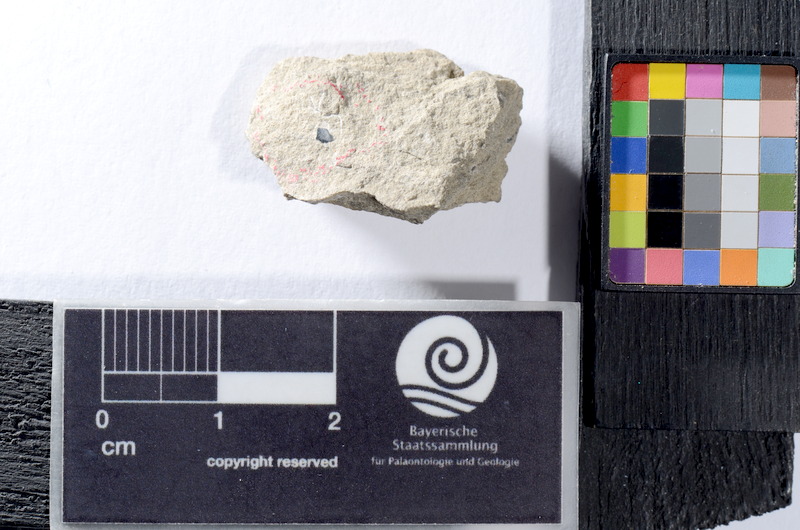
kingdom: Animalia
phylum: Chordata
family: Colobodontidae
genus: Colobodus
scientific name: Colobodus
